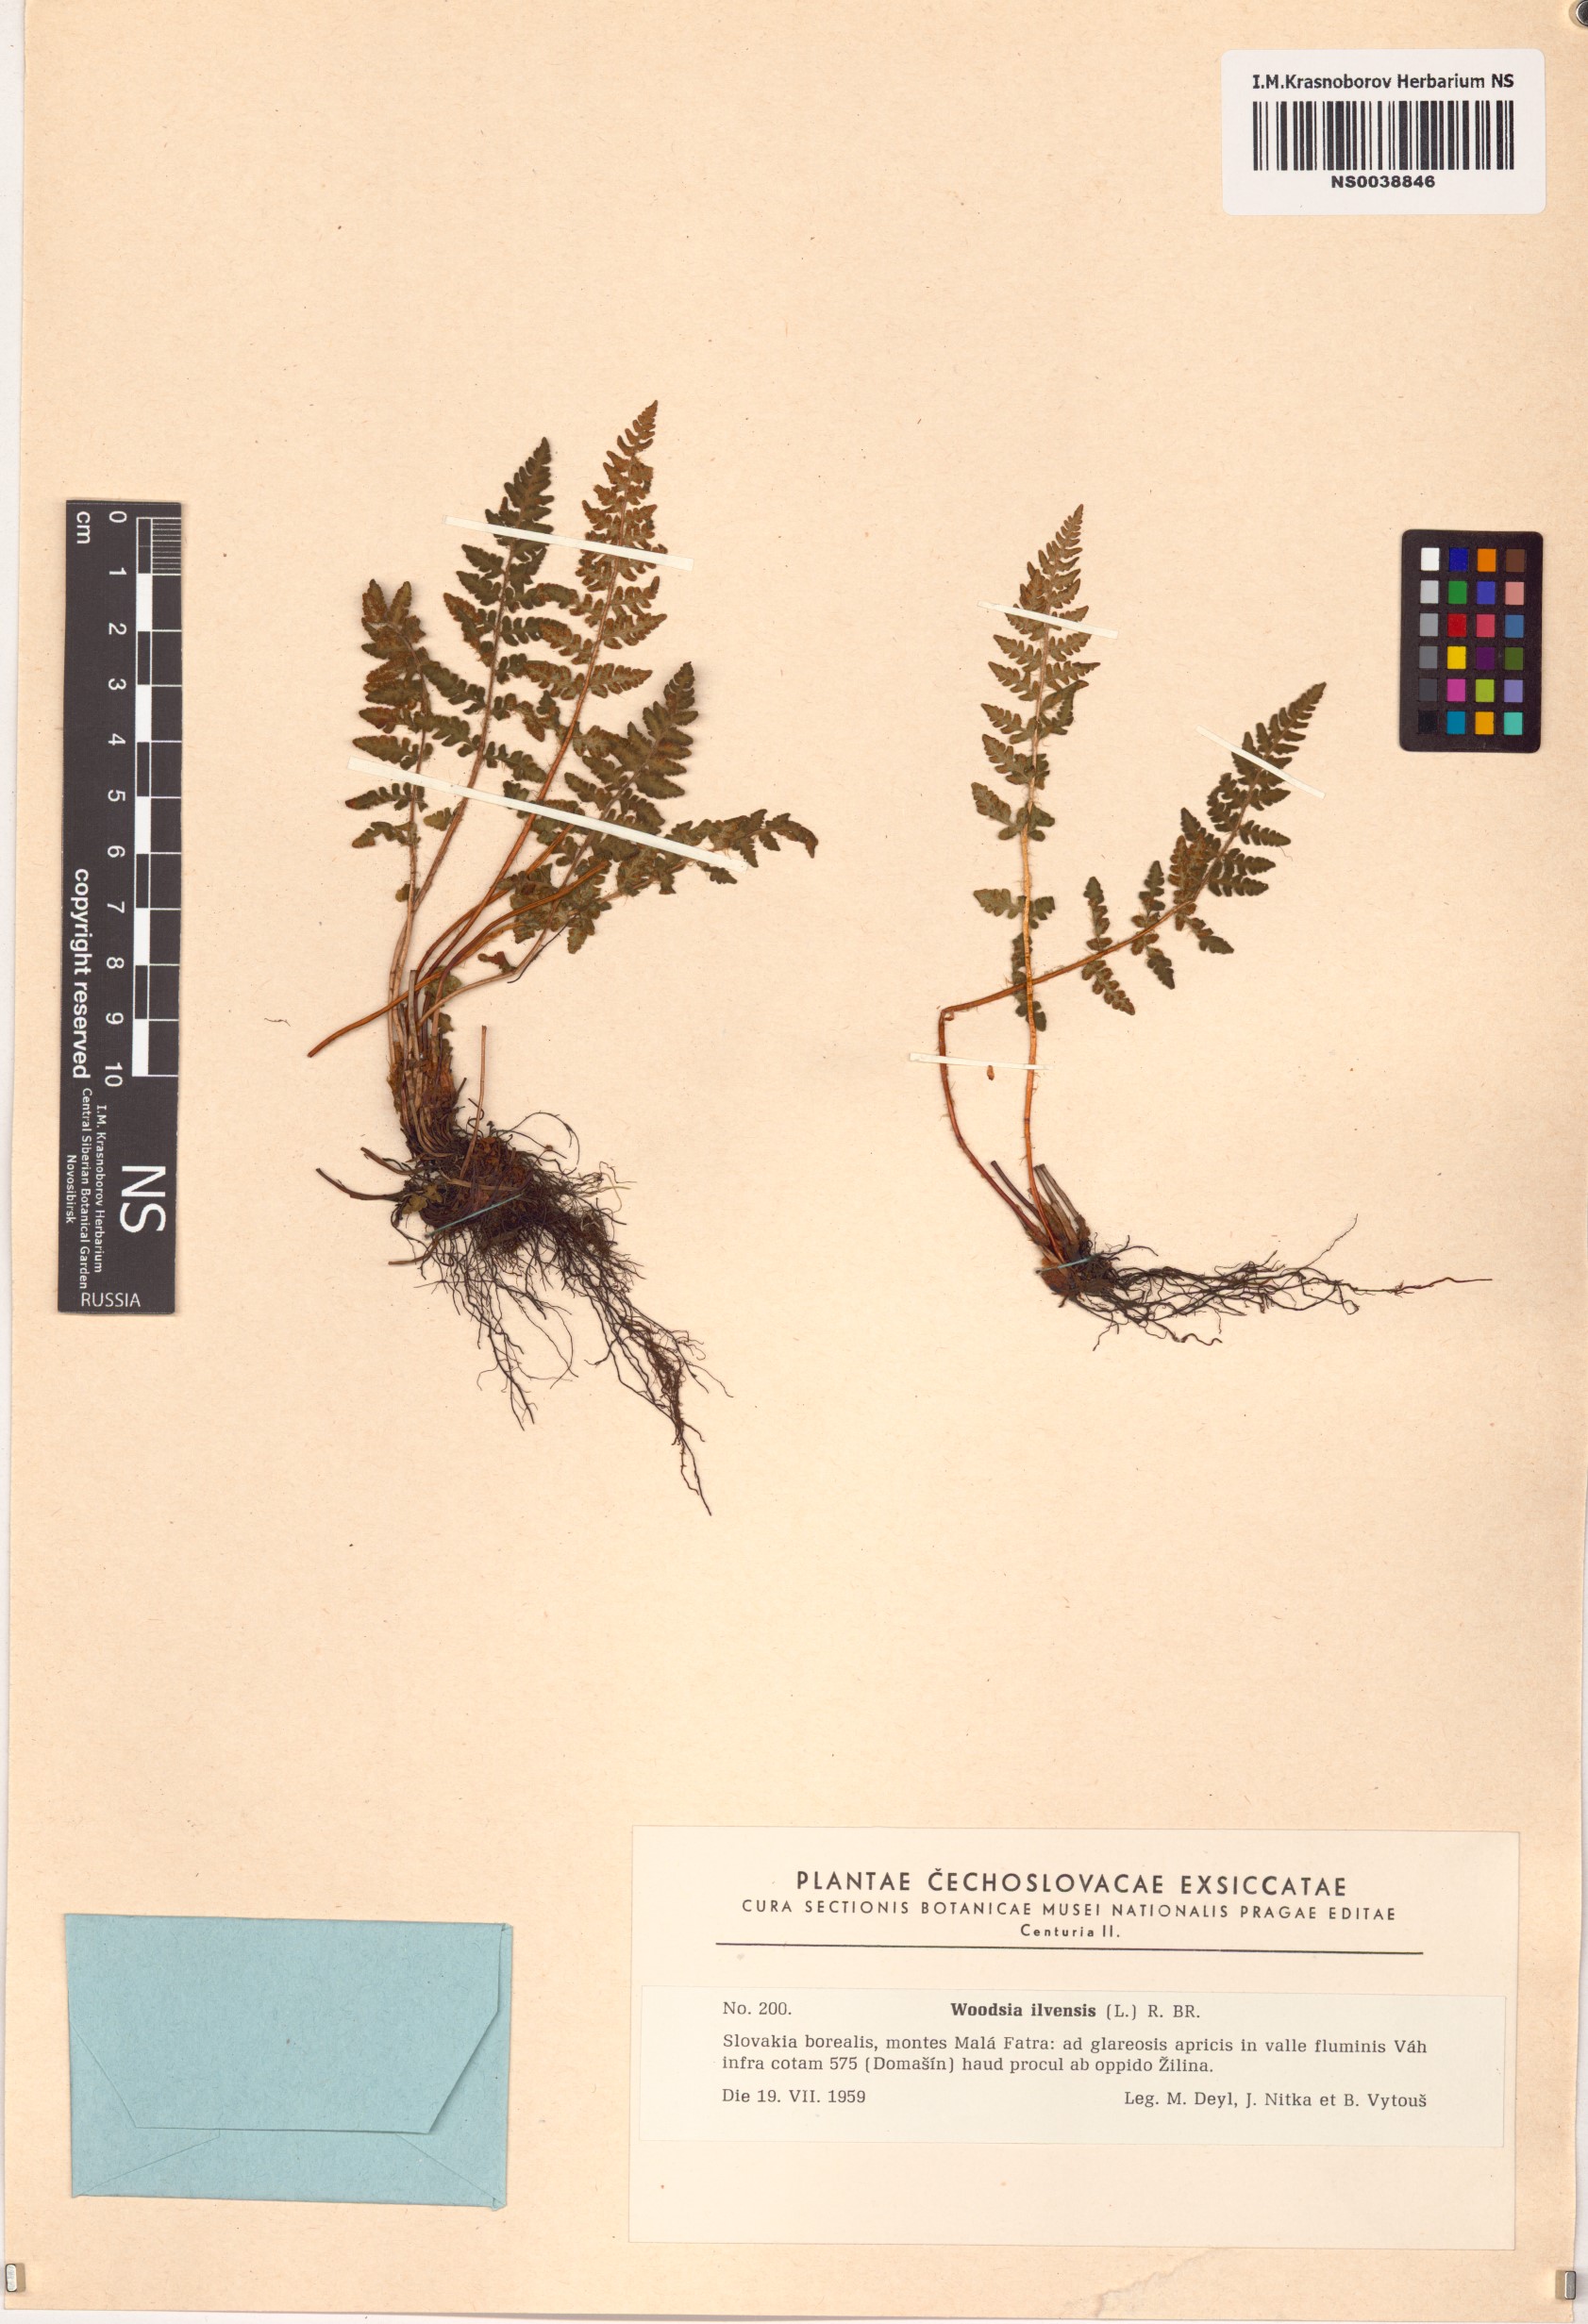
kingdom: Plantae
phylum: Tracheophyta
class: Polypodiopsida
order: Polypodiales
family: Woodsiaceae
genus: Woodsia
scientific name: Woodsia ilvensis
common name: Fragrant woodsia
